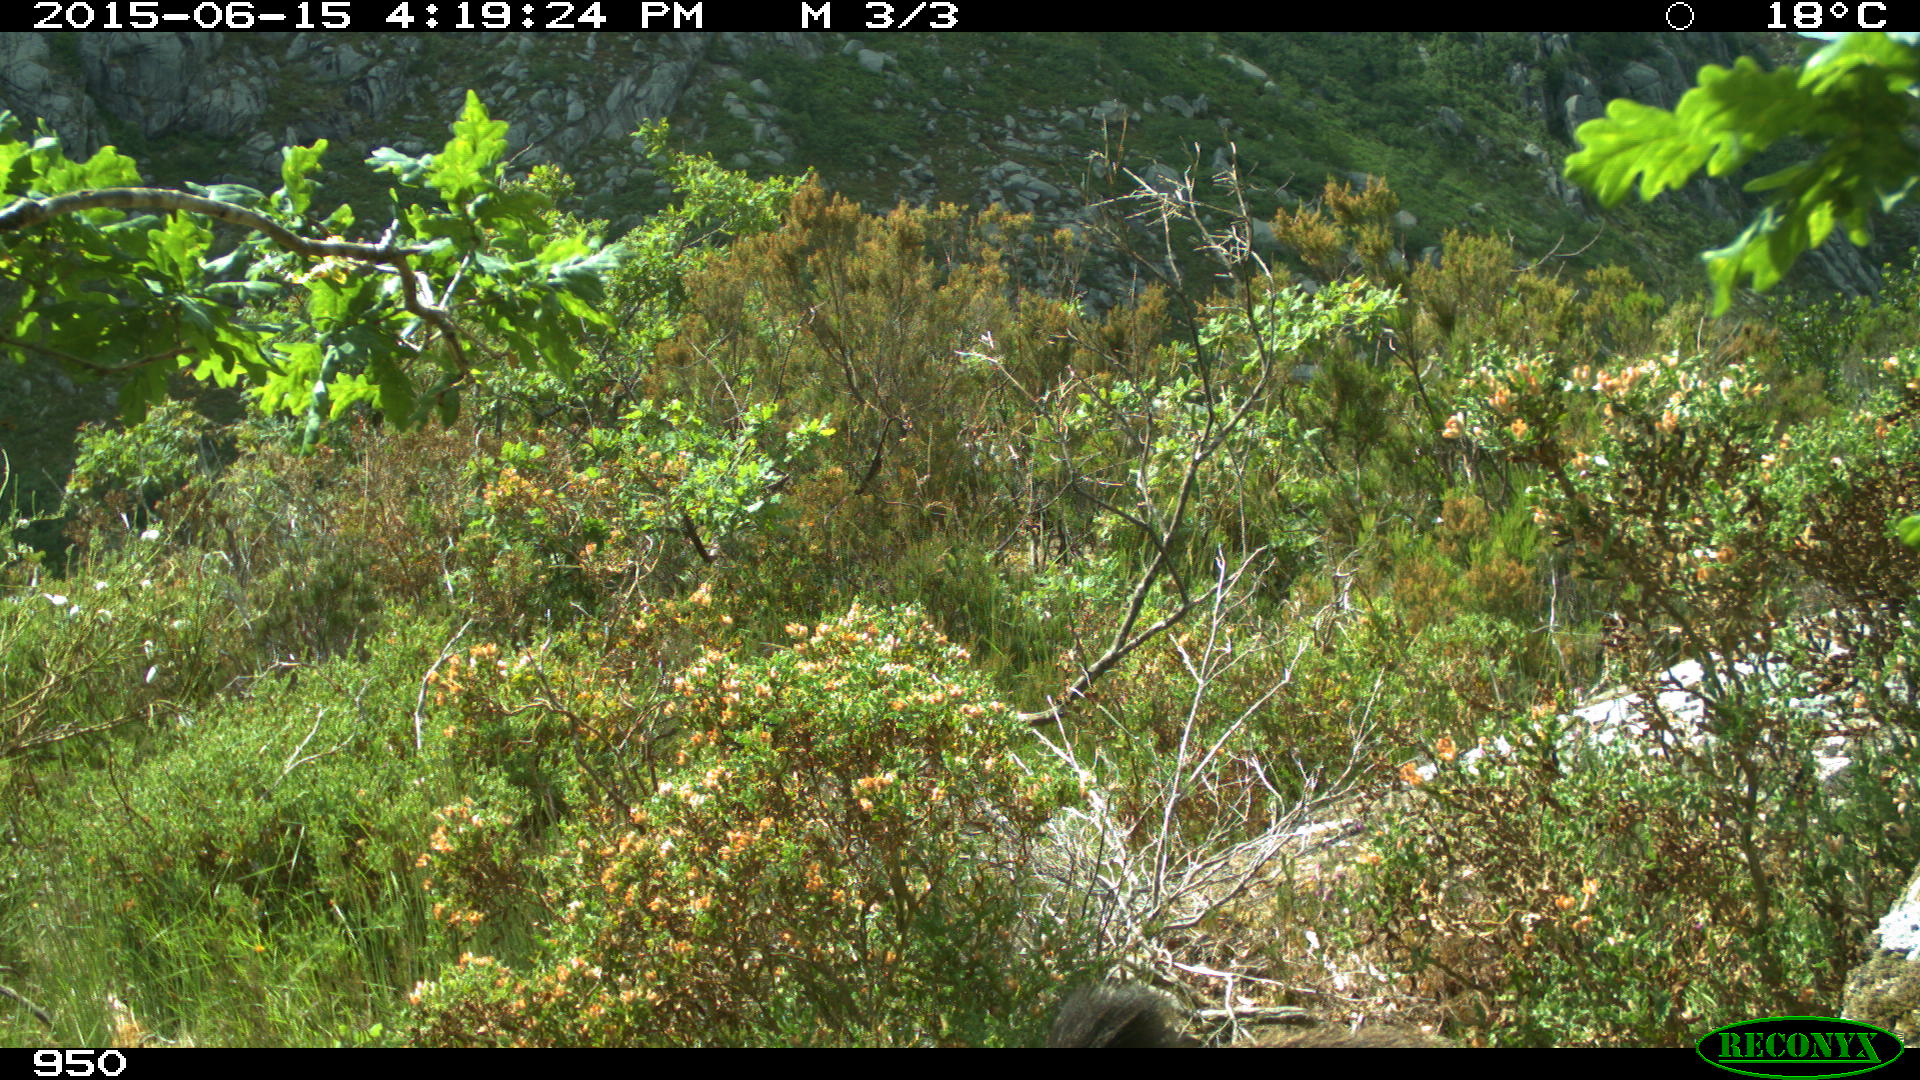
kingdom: Animalia
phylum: Chordata
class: Mammalia
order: Artiodactyla
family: Suidae
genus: Sus
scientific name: Sus scrofa
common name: Wild boar
